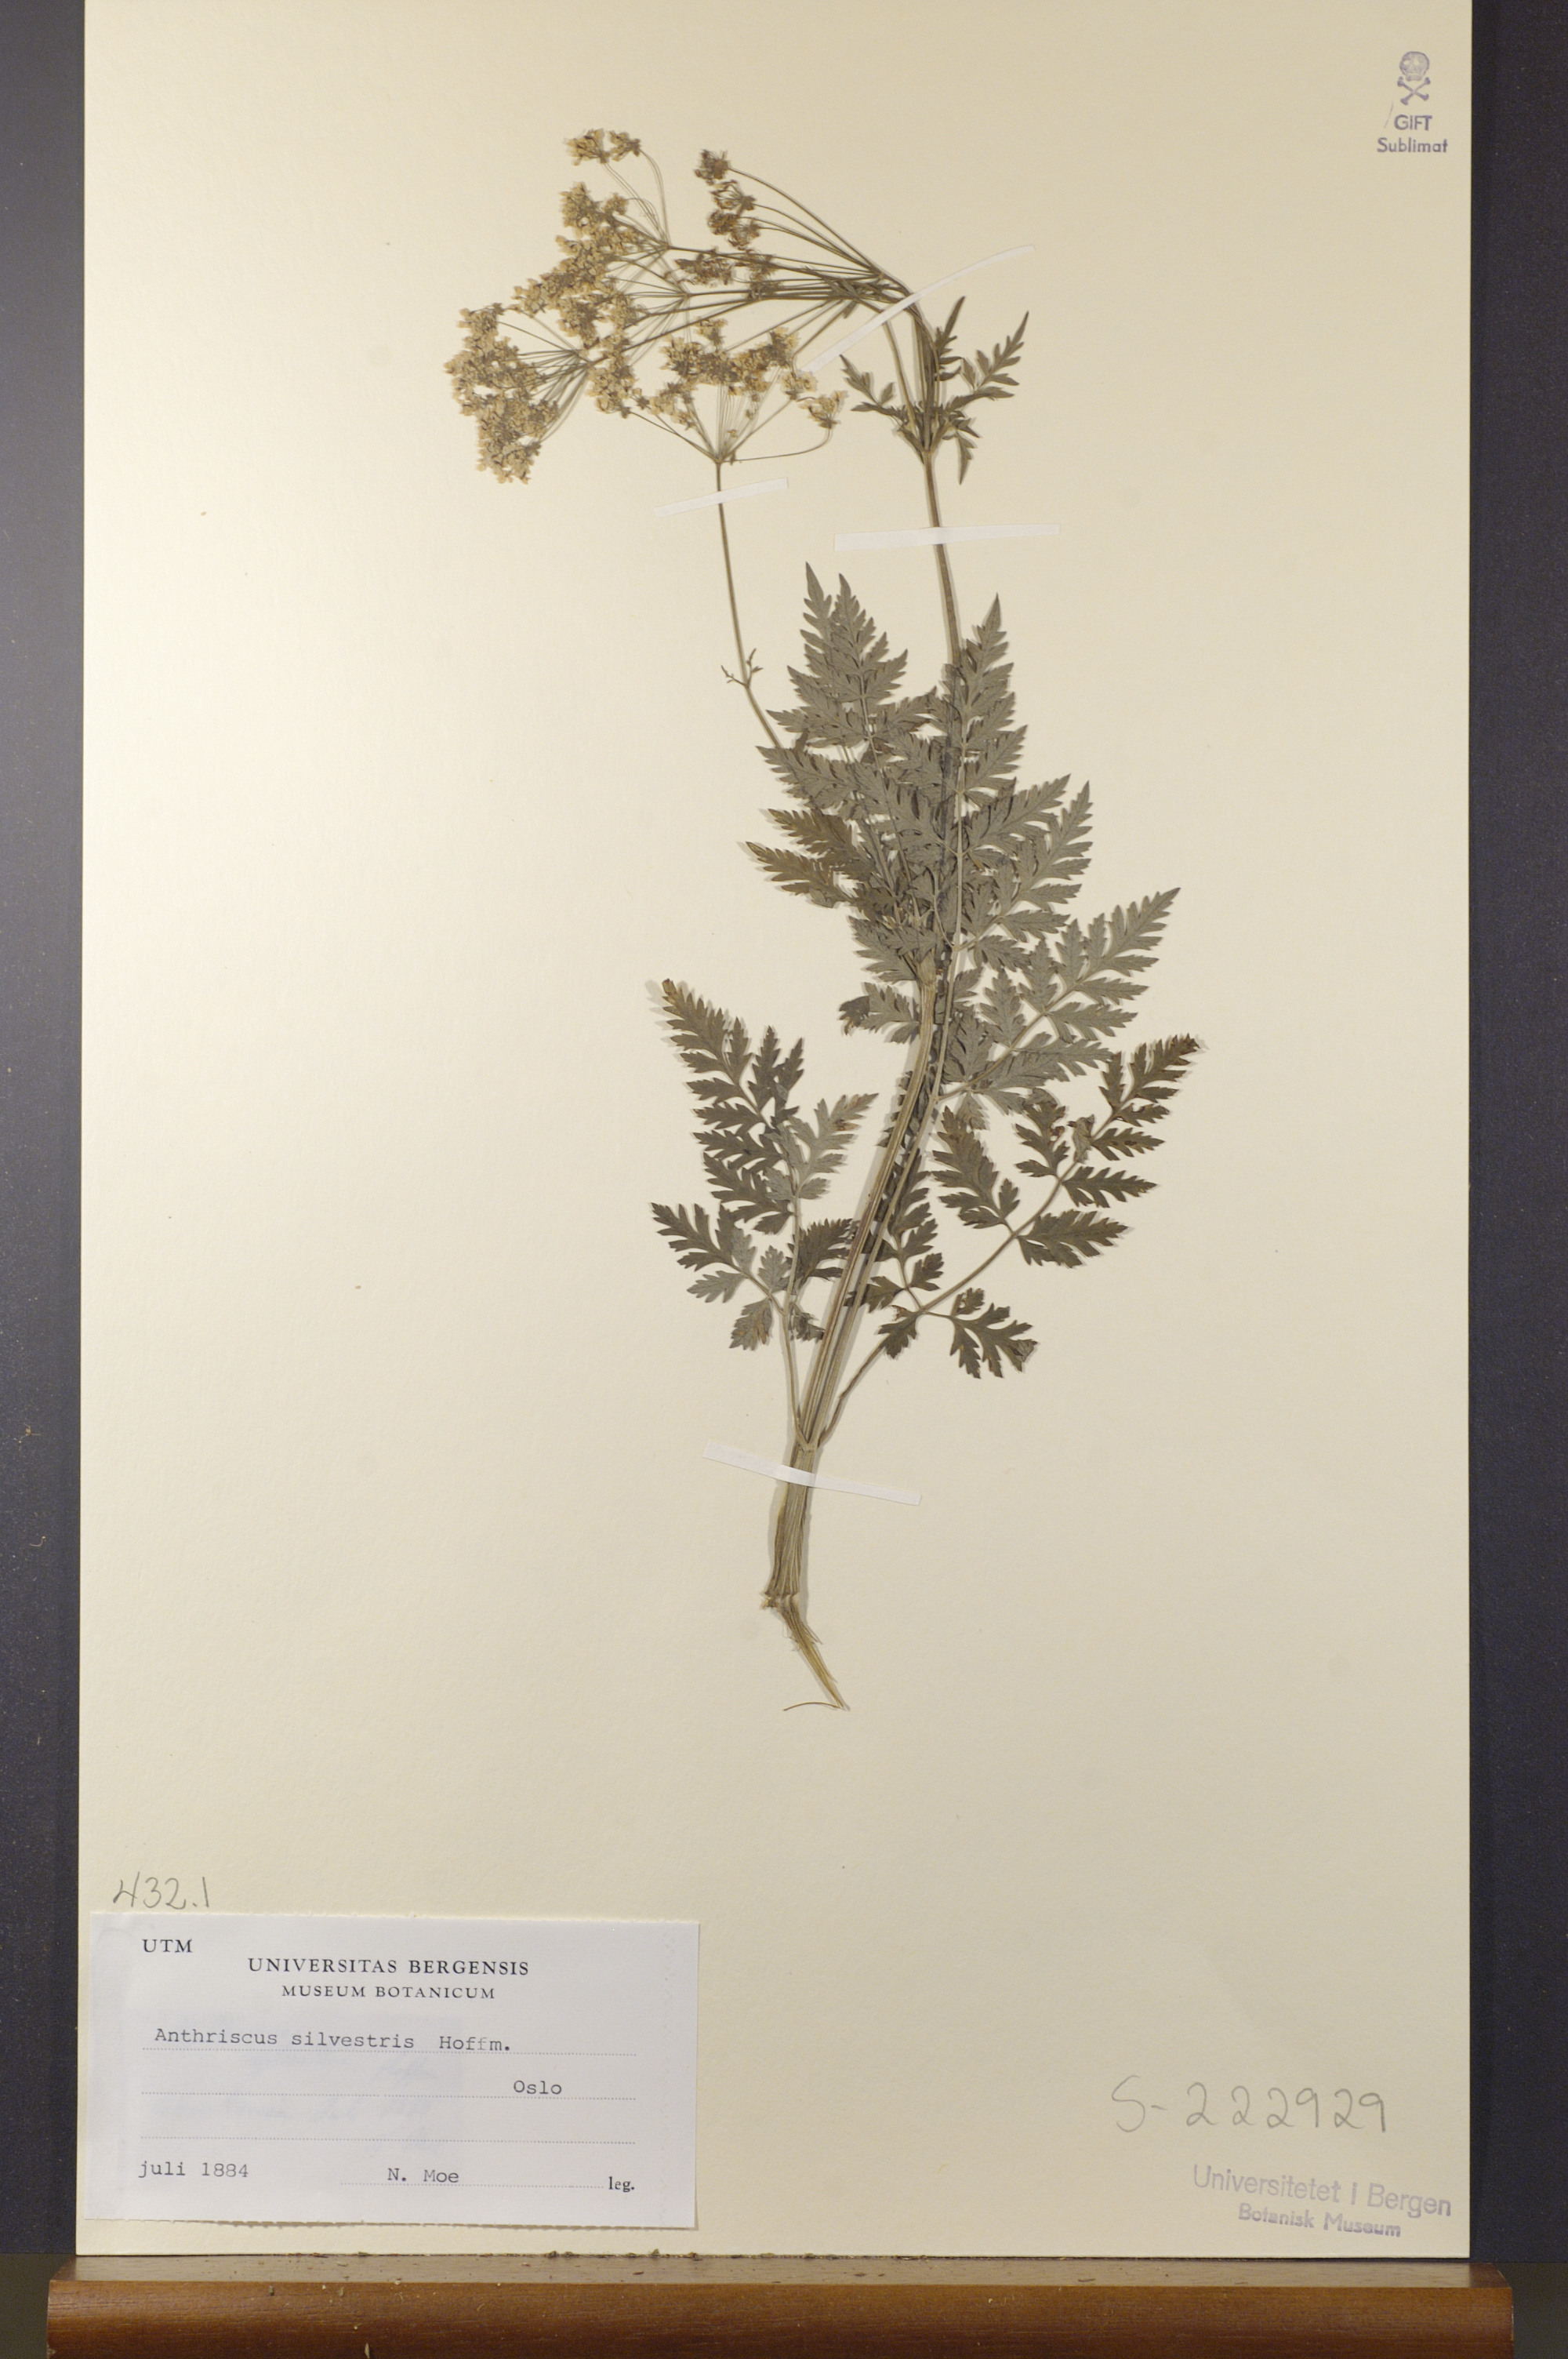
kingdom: Plantae
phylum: Tracheophyta
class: Magnoliopsida
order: Apiales
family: Apiaceae
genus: Anthriscus
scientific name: Anthriscus sylvestris
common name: Cow parsley
